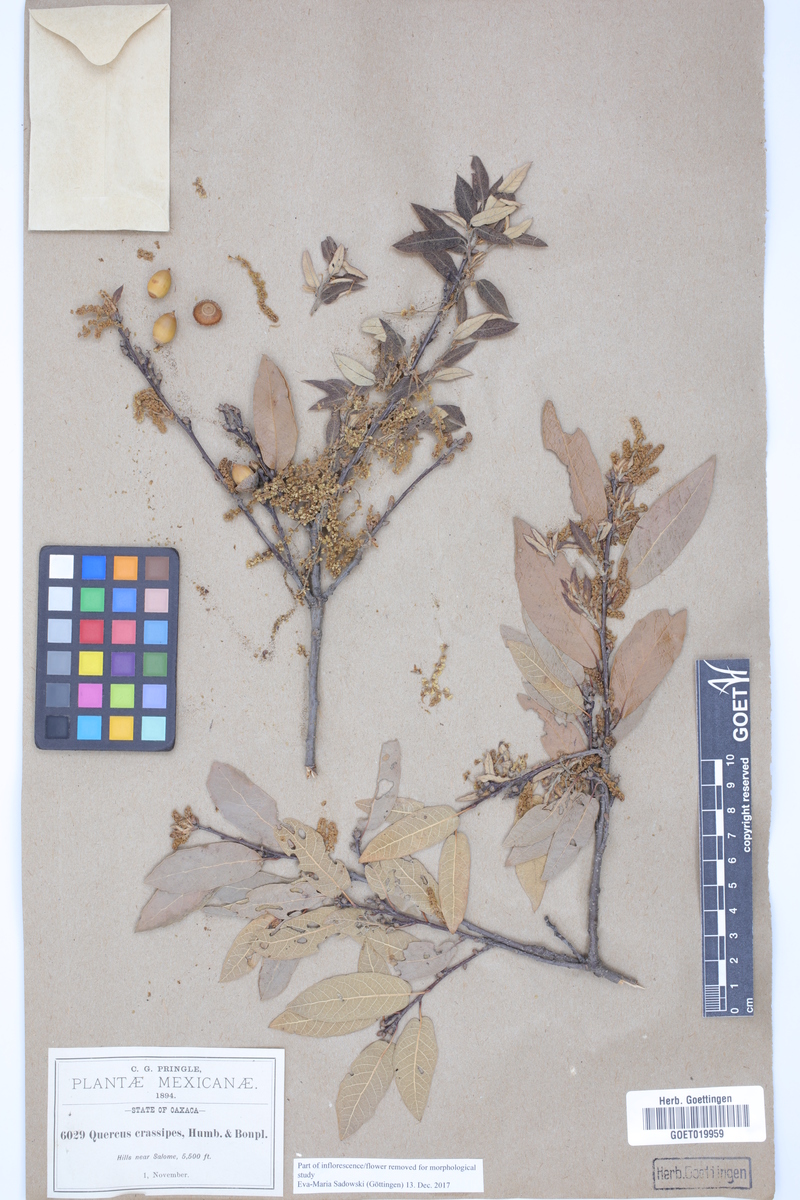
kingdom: Plantae
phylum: Tracheophyta
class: Magnoliopsida
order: Fagales
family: Fagaceae
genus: Quercus
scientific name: Quercus crassipes
